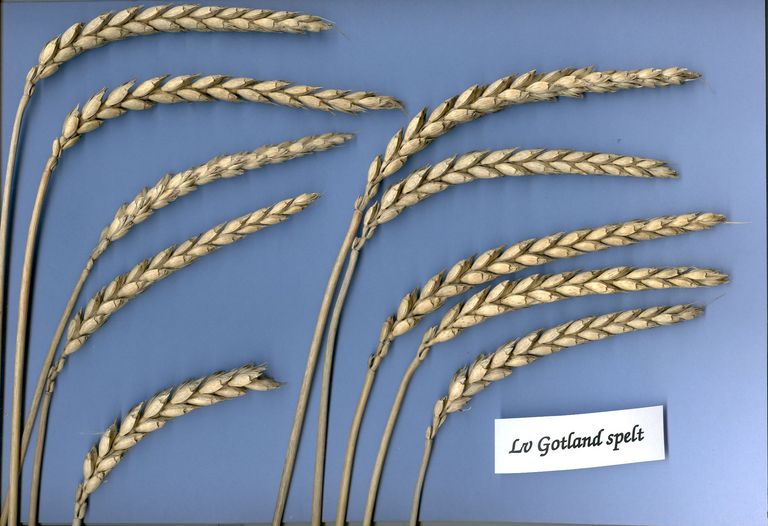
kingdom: Plantae
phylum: Tracheophyta
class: Liliopsida
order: Poales
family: Poaceae
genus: Triticum
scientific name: Triticum aestivum
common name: Common wheat
